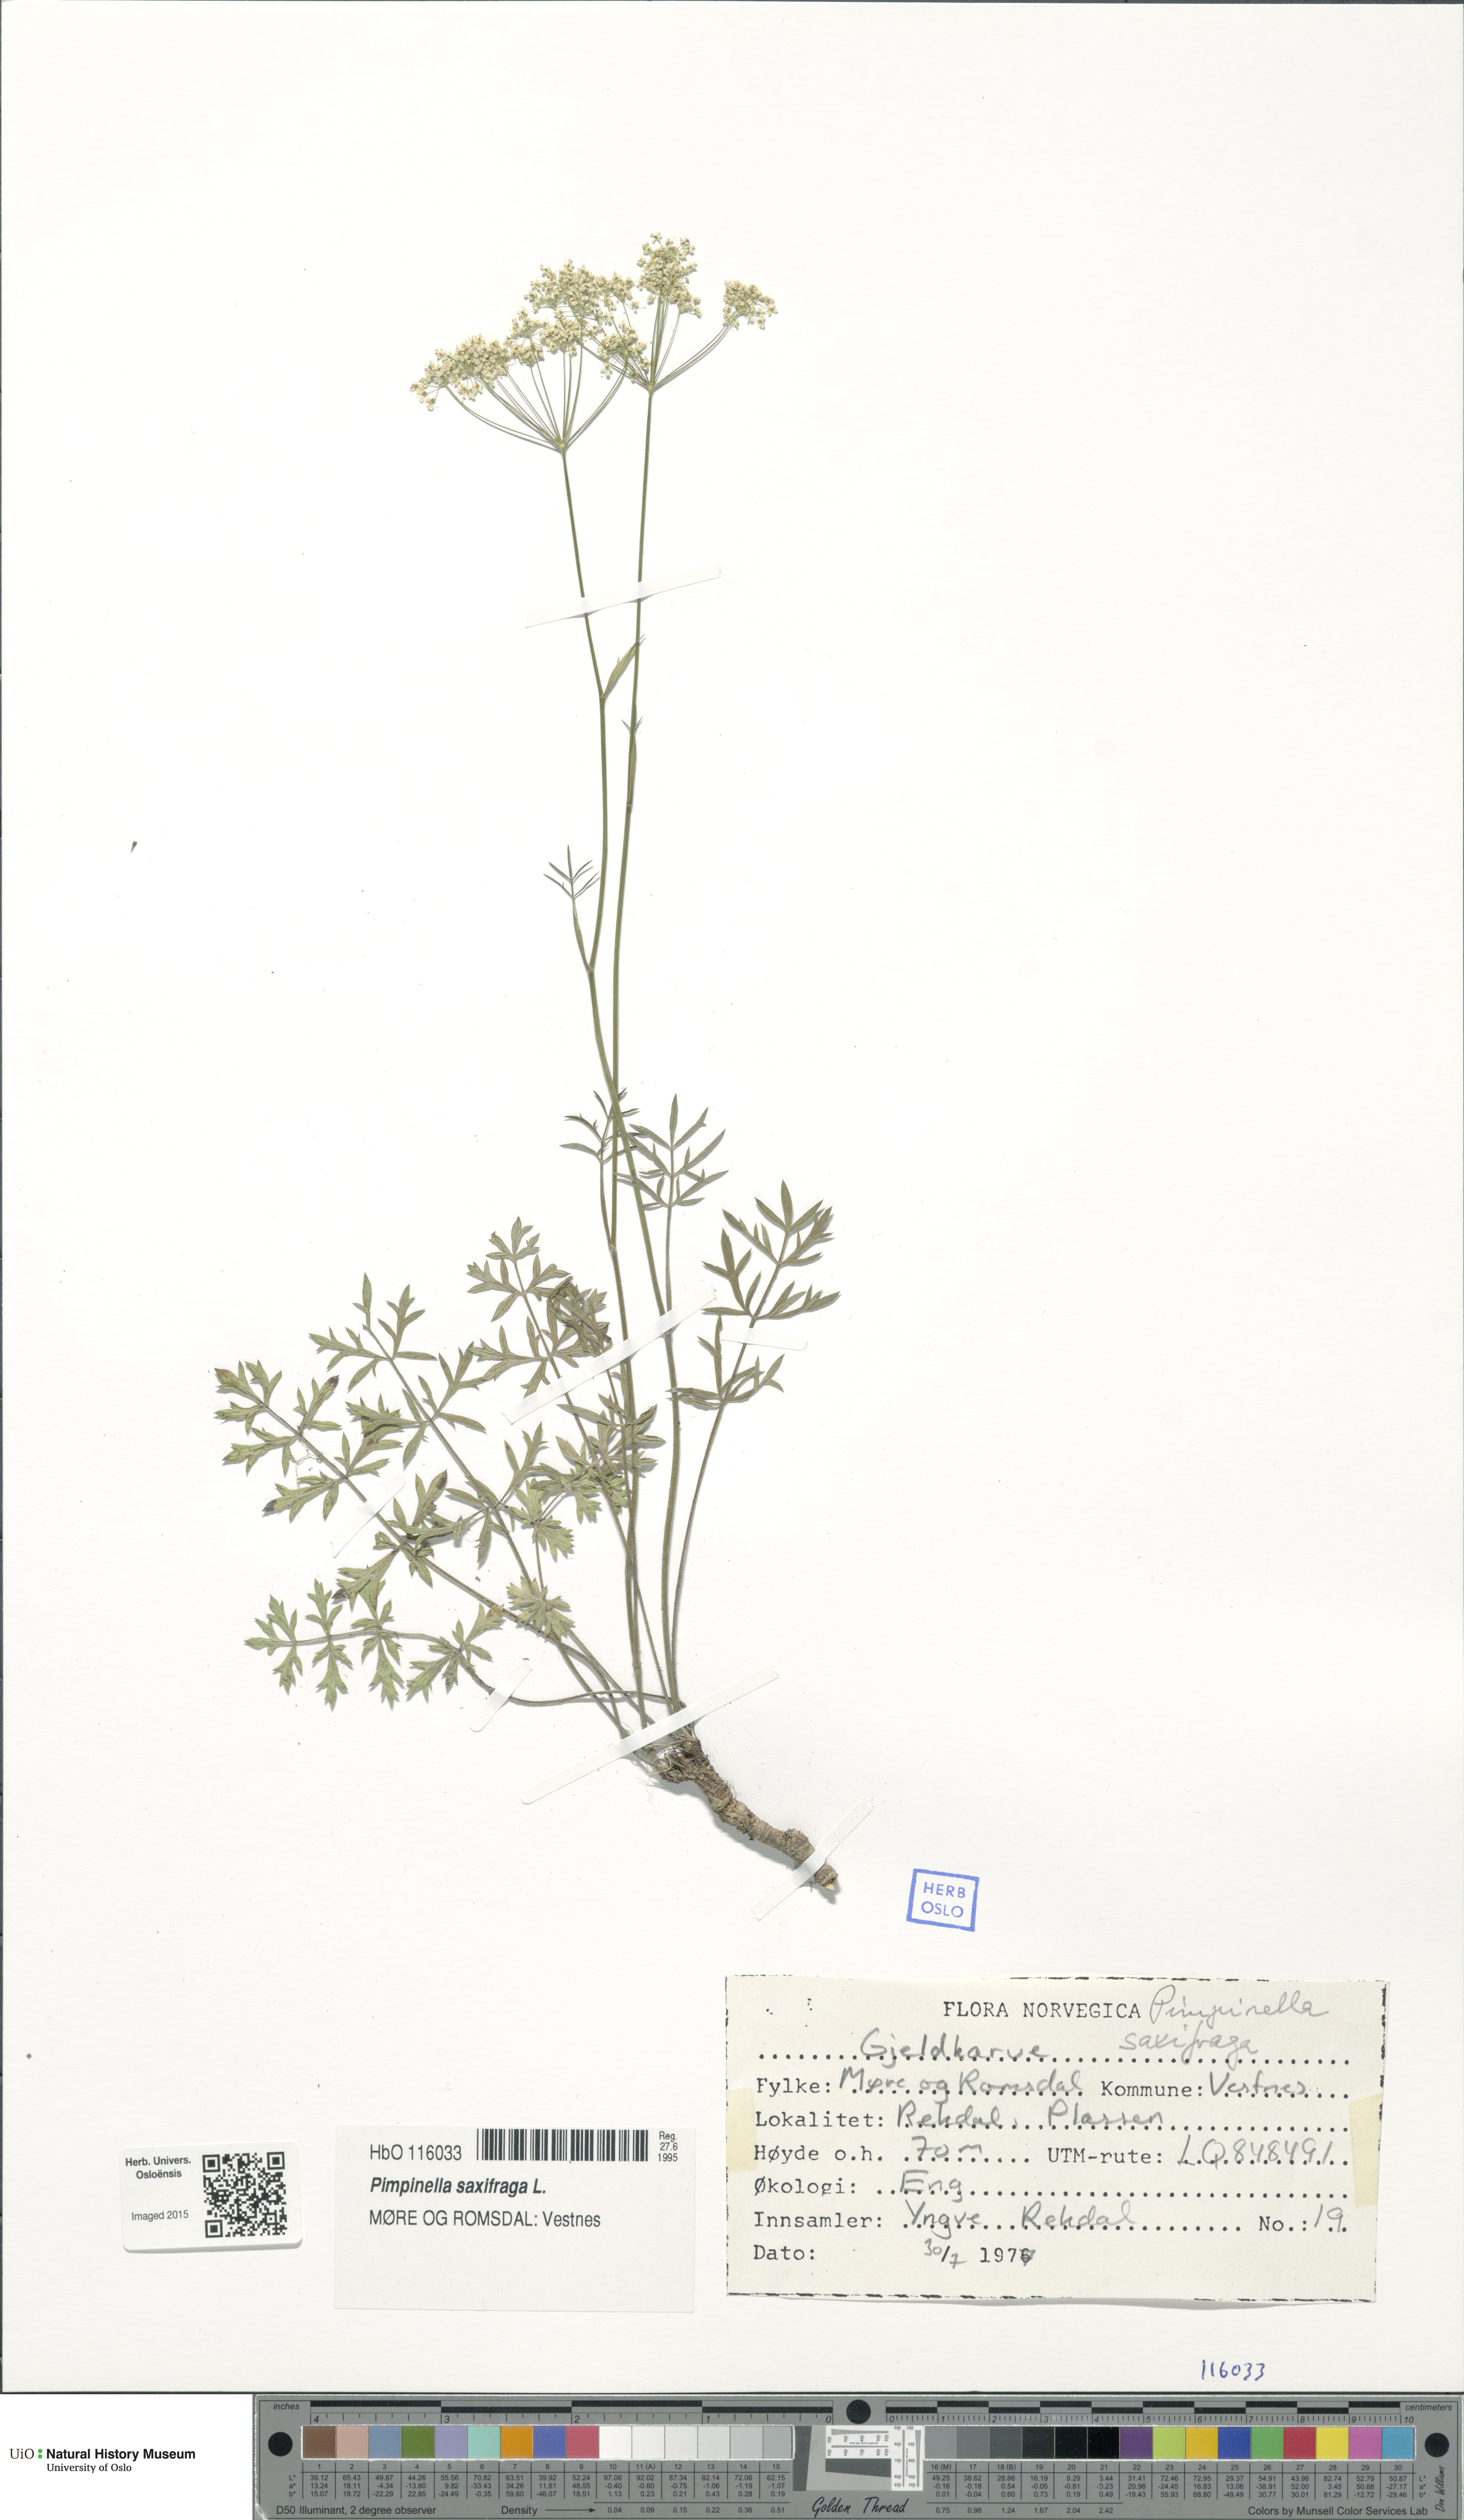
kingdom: Plantae
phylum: Tracheophyta
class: Magnoliopsida
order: Apiales
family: Apiaceae
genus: Pimpinella
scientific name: Pimpinella saxifraga
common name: Burnet-saxifrage
